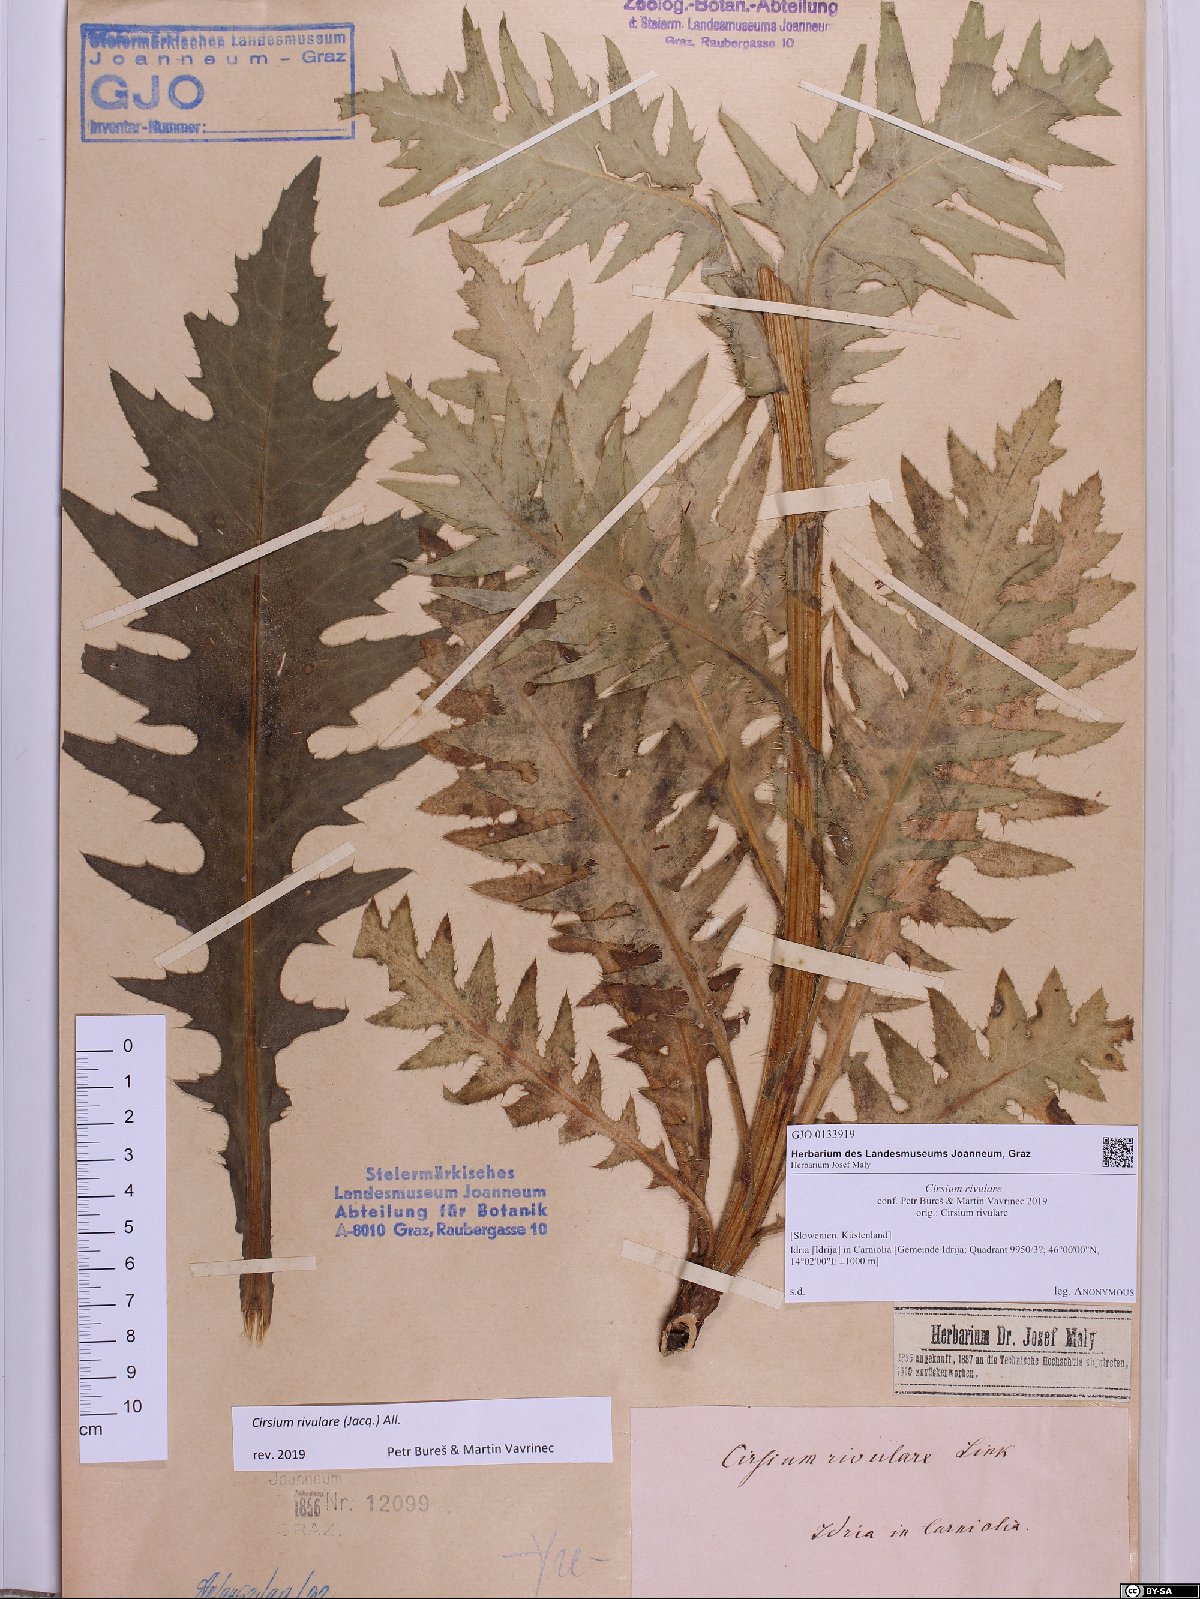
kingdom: Plantae
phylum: Tracheophyta
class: Magnoliopsida
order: Asterales
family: Asteraceae
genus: Cirsium
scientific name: Cirsium rivulare
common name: Brook thistle
